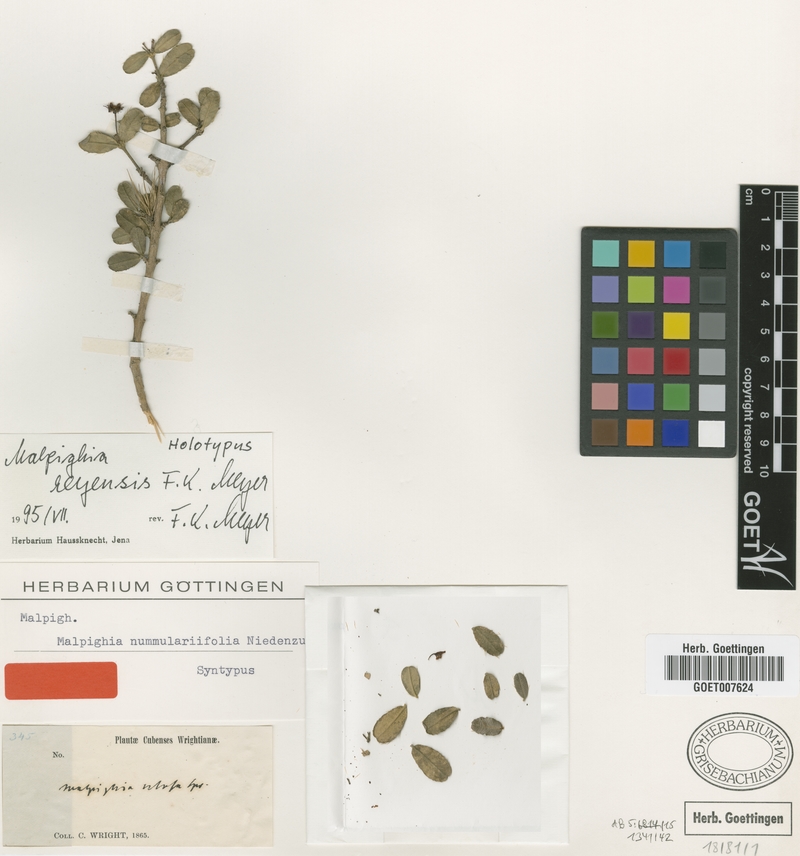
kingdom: Plantae
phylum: Tracheophyta
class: Magnoliopsida
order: Malpighiales
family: Malpighiaceae
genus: Malpighia
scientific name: Malpighia reyensis
